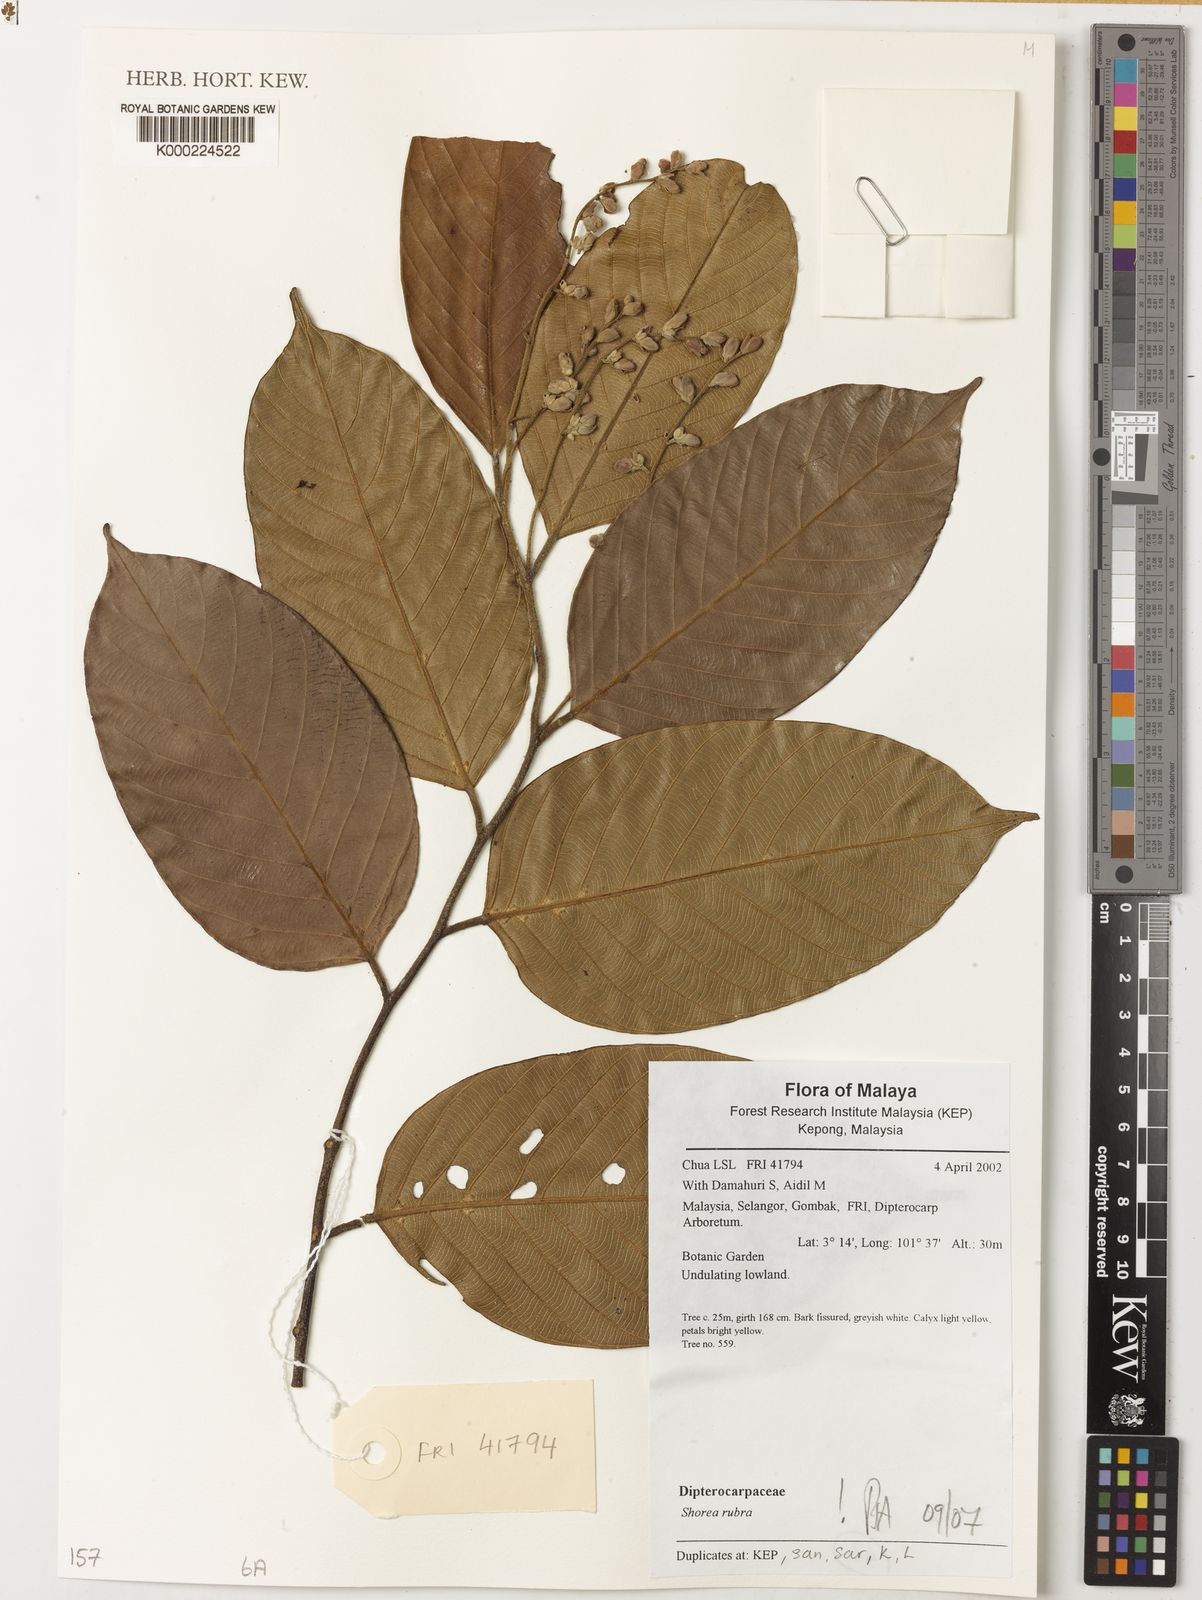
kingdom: Plantae
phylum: Tracheophyta
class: Magnoliopsida
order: Malvales
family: Dipterocarpaceae
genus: Shorea
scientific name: Shorea rubra
